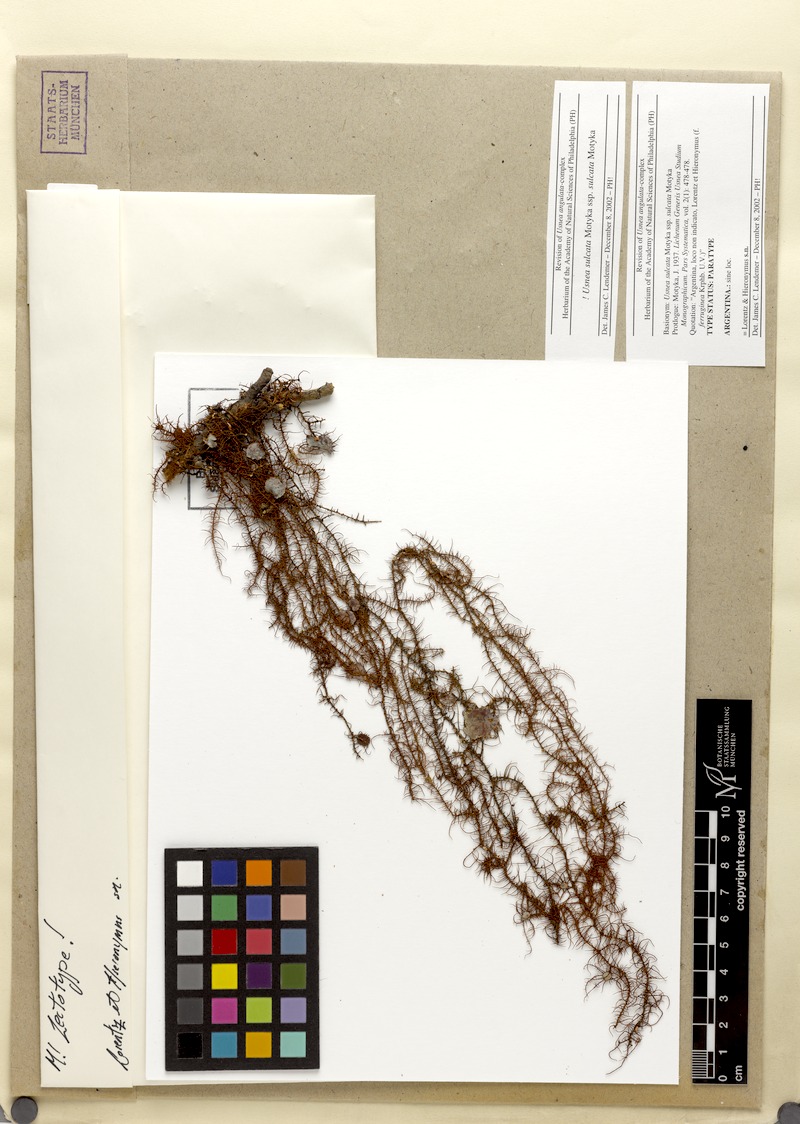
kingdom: Fungi
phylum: Ascomycota
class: Lecanoromycetes
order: Lecanorales
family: Parmeliaceae
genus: Usnea
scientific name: Usnea sulcata
